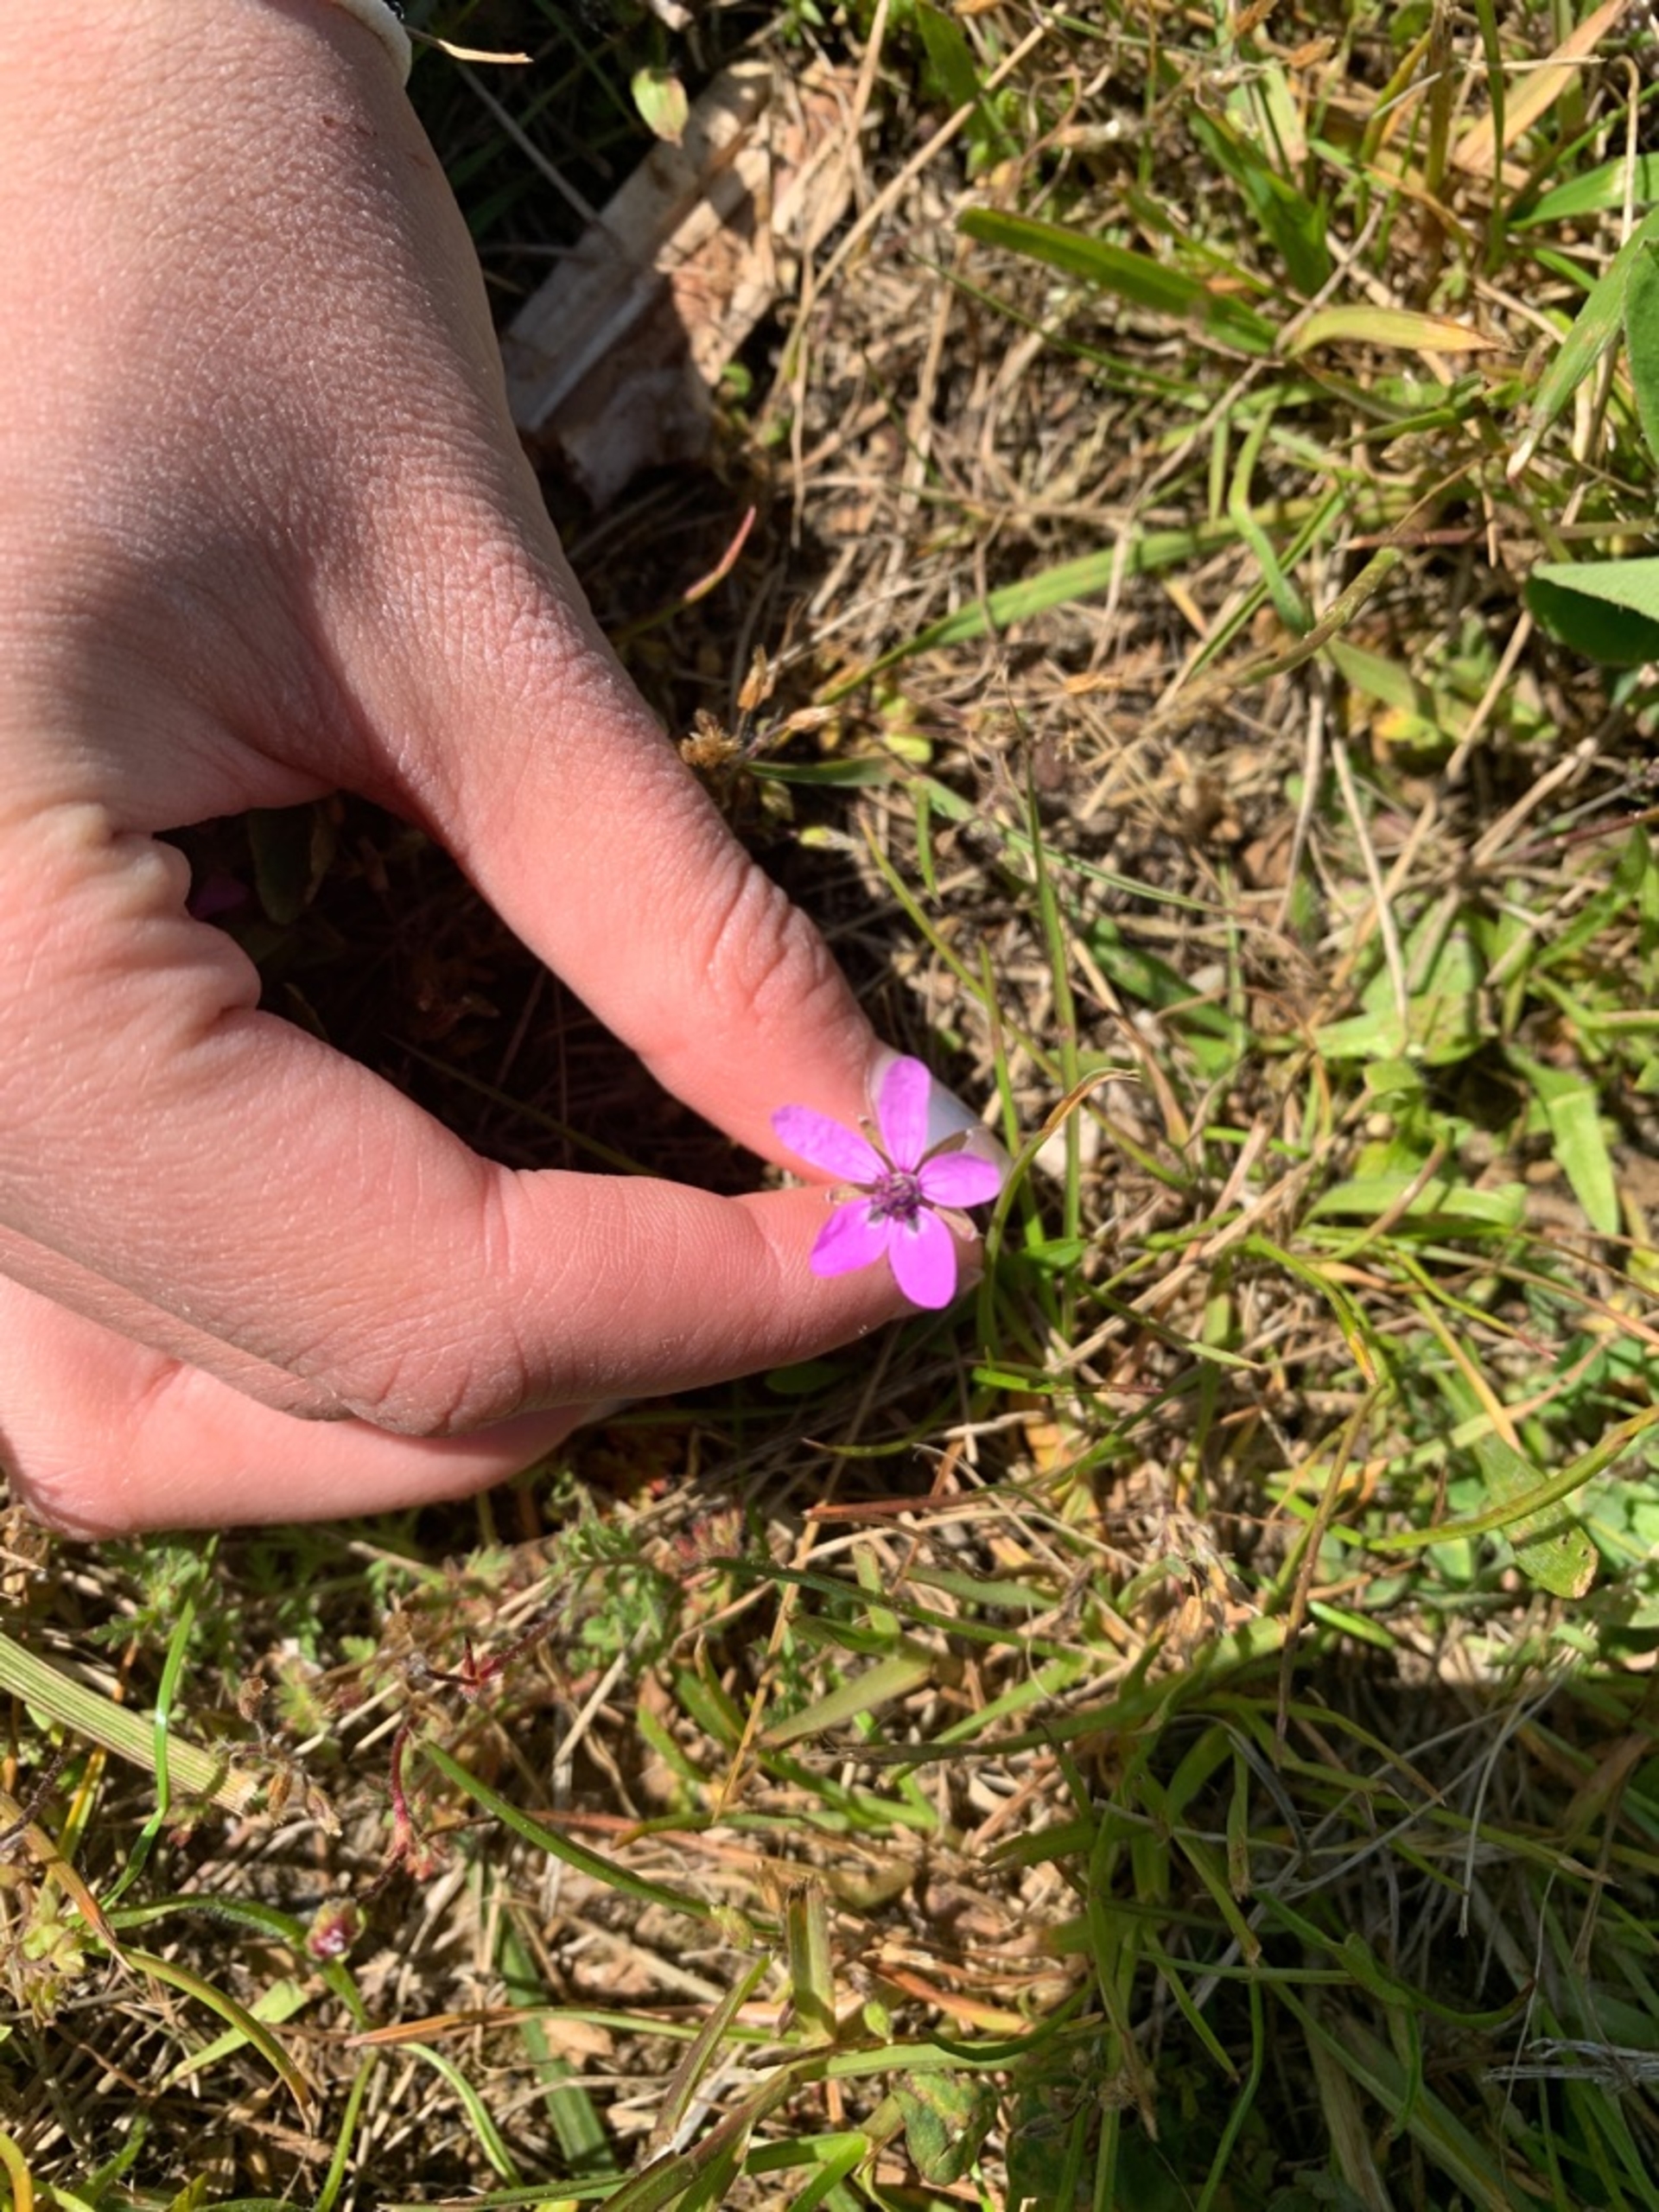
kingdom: Plantae
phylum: Tracheophyta
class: Magnoliopsida
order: Geraniales
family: Geraniaceae
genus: Erodium
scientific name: Erodium cicutarium
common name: Hejrenæb
